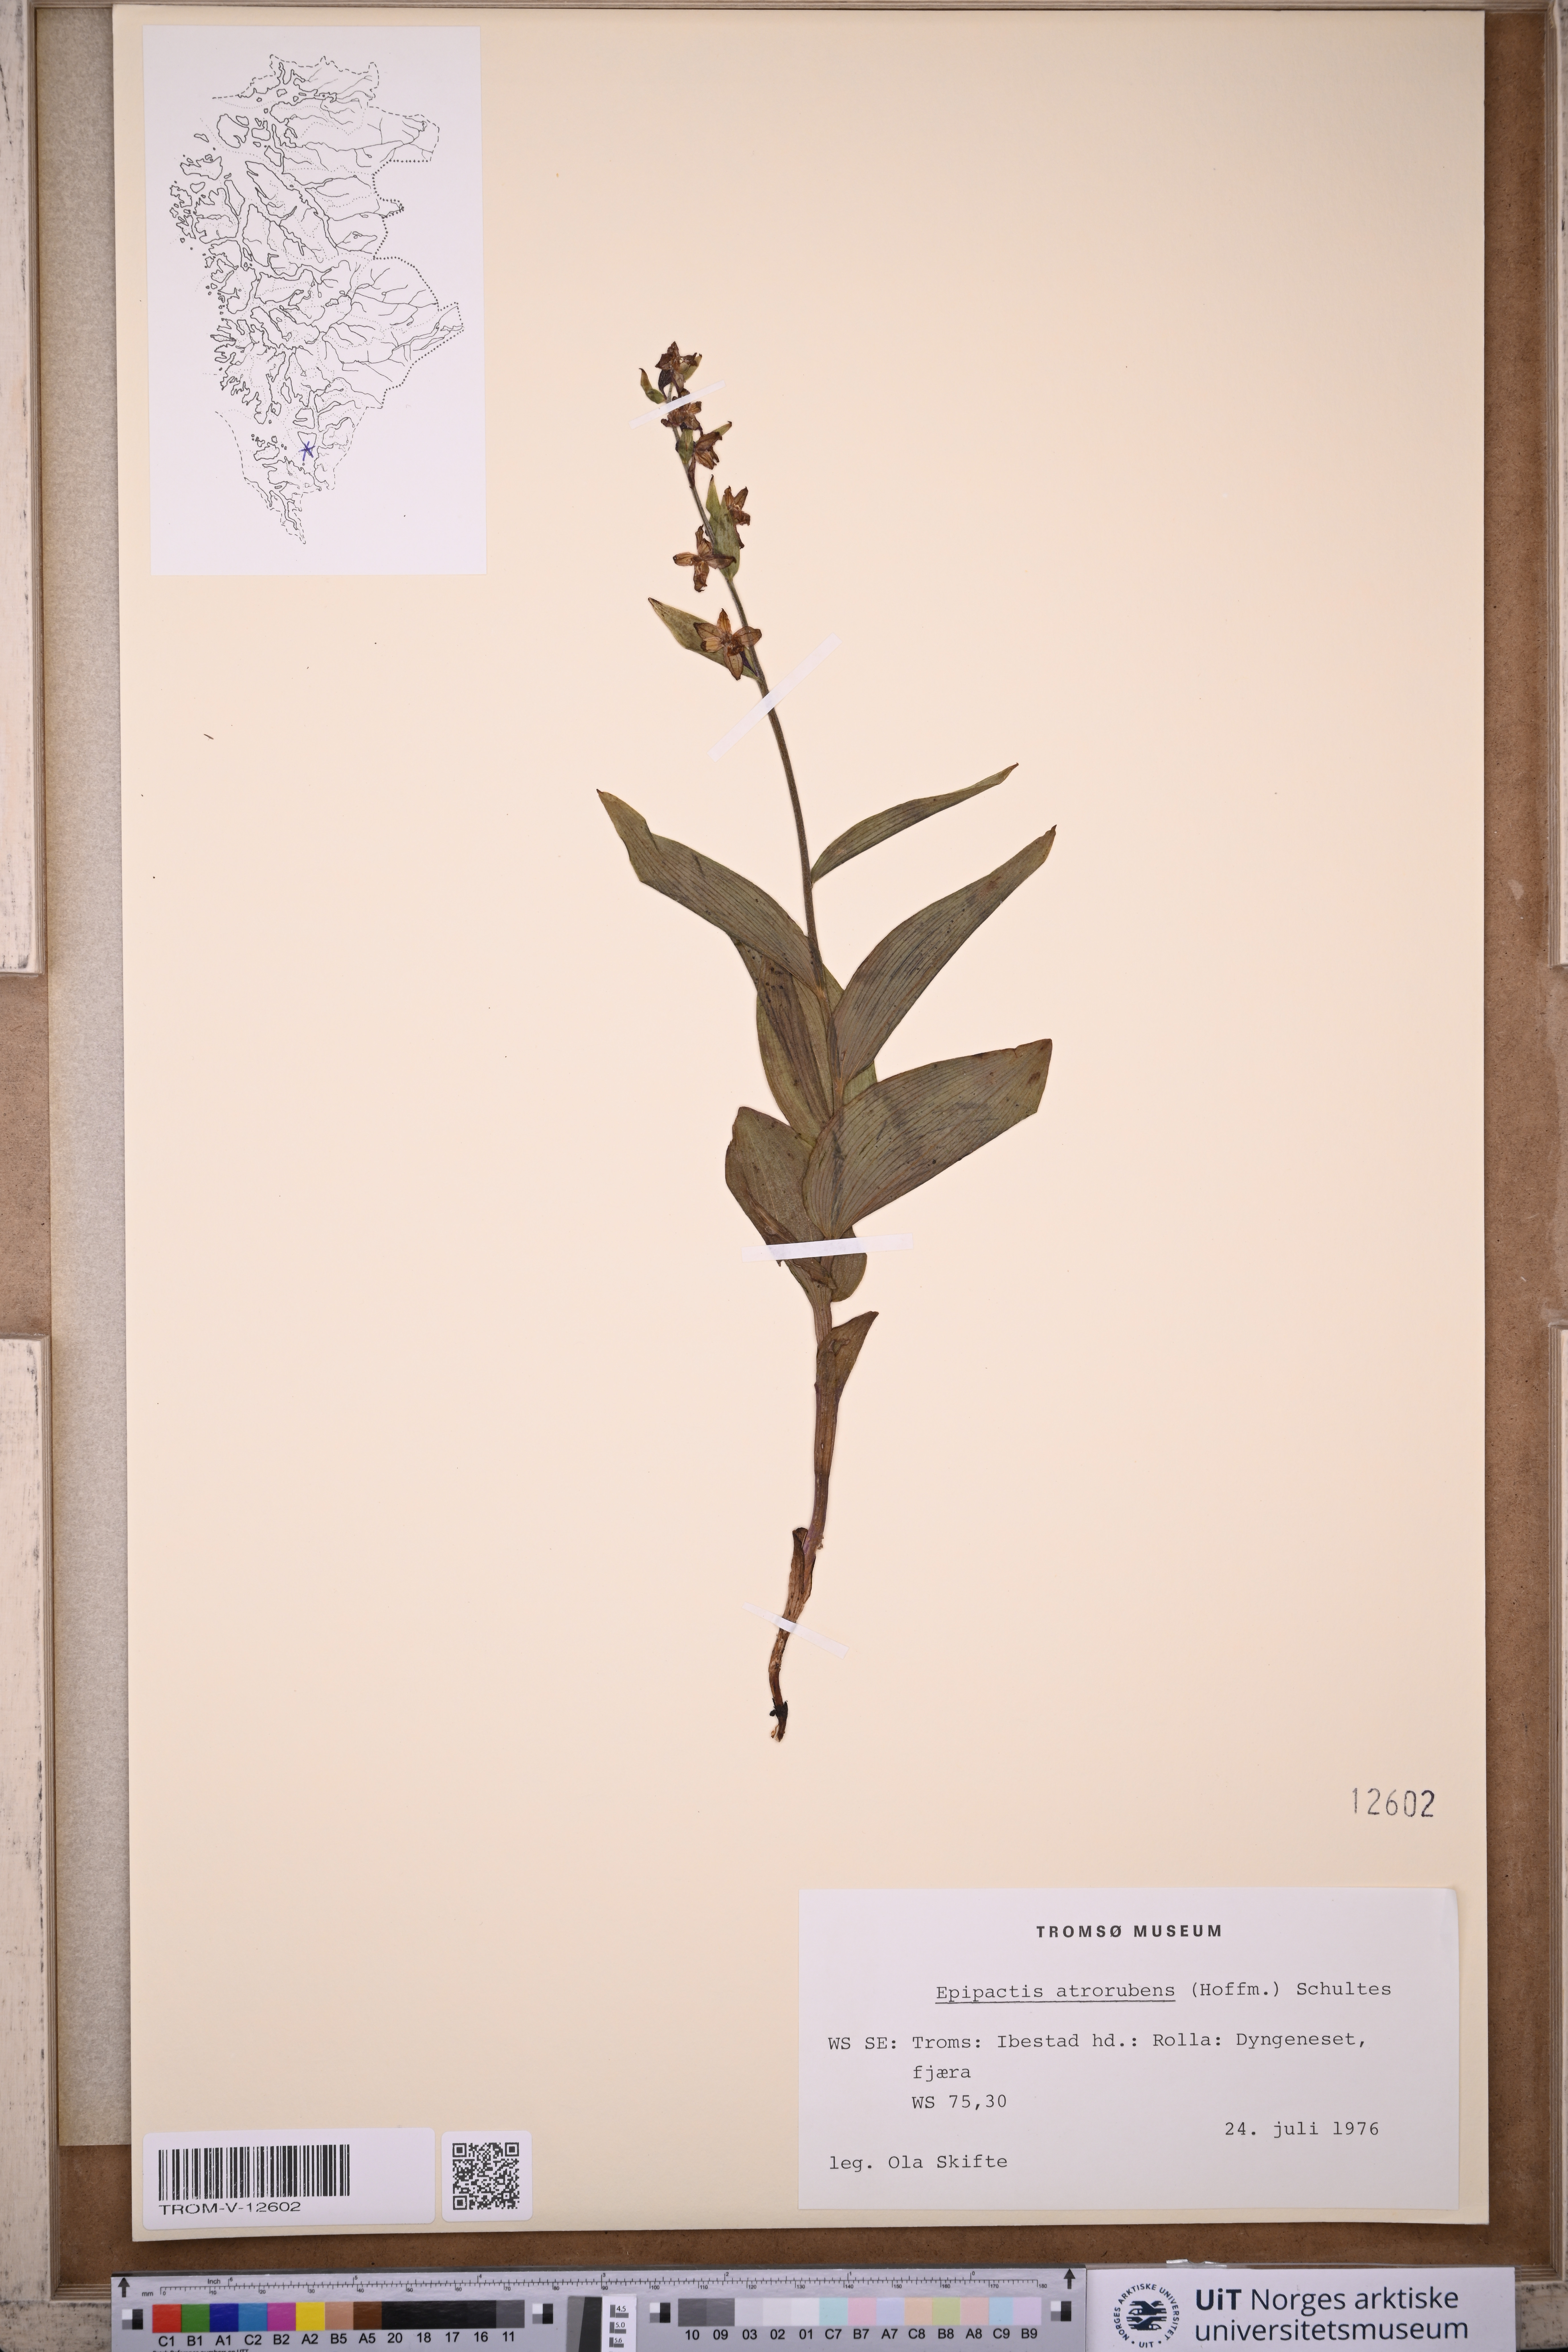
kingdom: Plantae
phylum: Tracheophyta
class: Liliopsida
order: Asparagales
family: Orchidaceae
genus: Epipactis
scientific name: Epipactis atrorubens
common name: Dark-red helleborine
